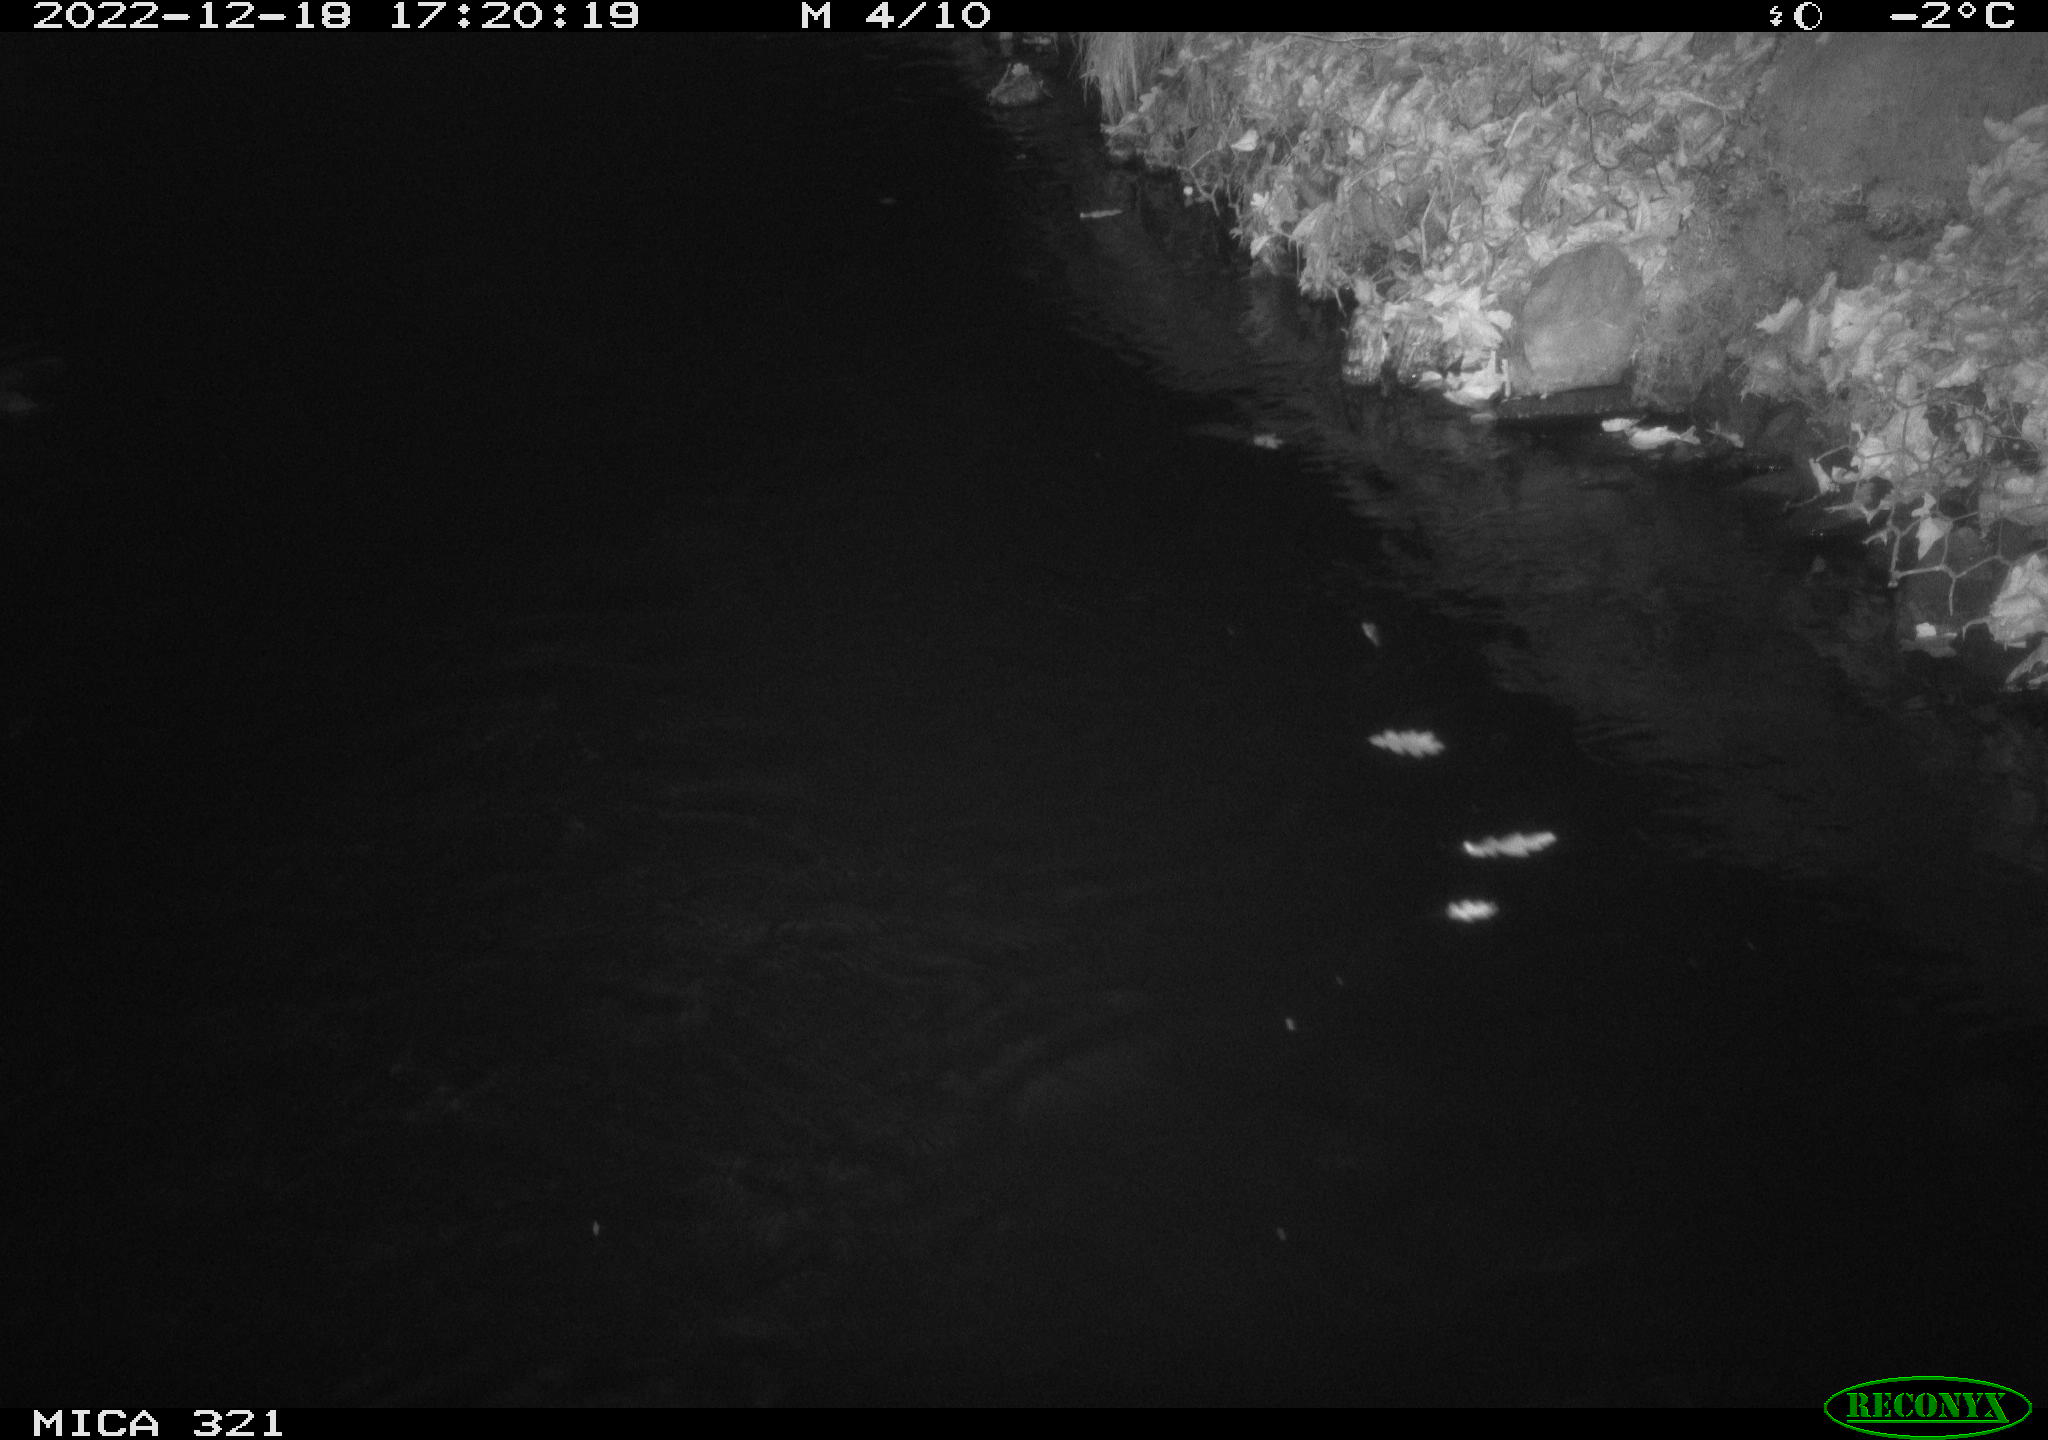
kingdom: Animalia
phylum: Chordata
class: Aves
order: Anseriformes
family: Anatidae
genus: Anas
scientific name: Anas
